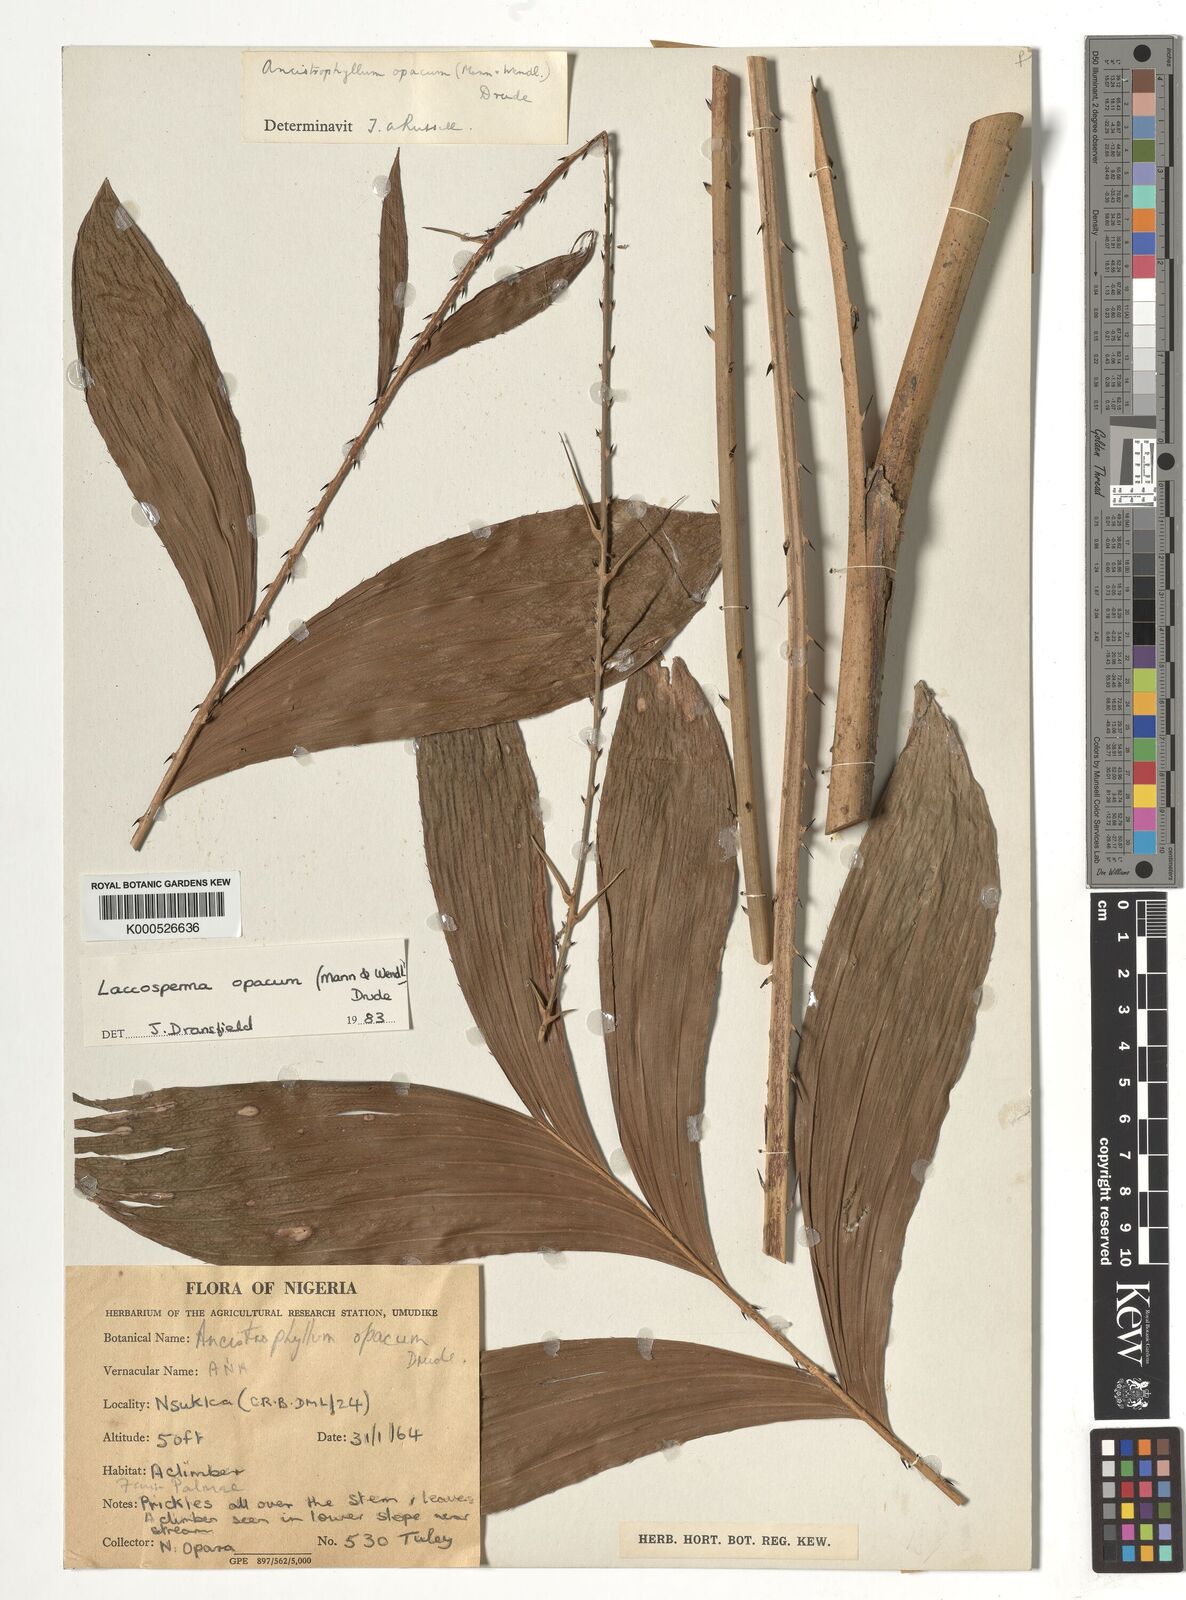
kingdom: Plantae
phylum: Tracheophyta
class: Liliopsida
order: Arecales
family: Arecaceae
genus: Laccosperma
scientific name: Laccosperma opacum
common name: Rattan
